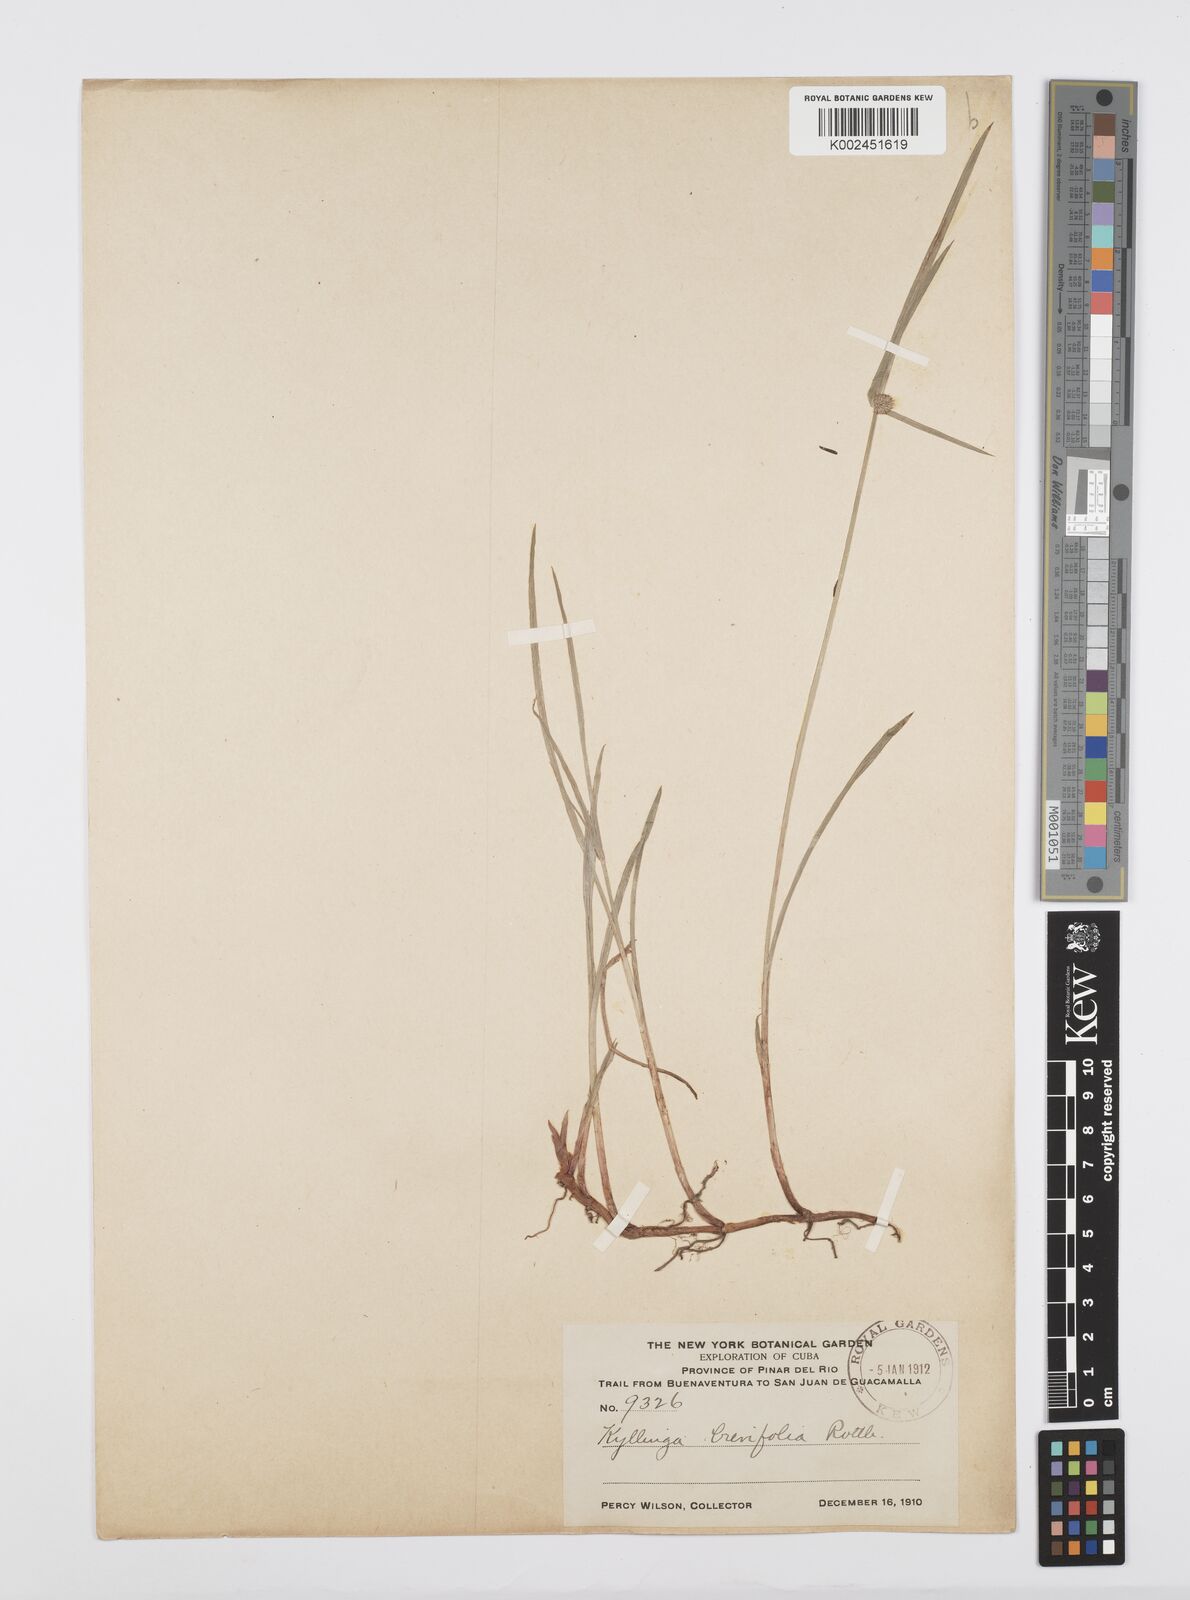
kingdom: Plantae
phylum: Tracheophyta
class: Liliopsida
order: Poales
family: Cyperaceae
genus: Cyperus
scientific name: Cyperus brevifolius
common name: Globe kyllinga
